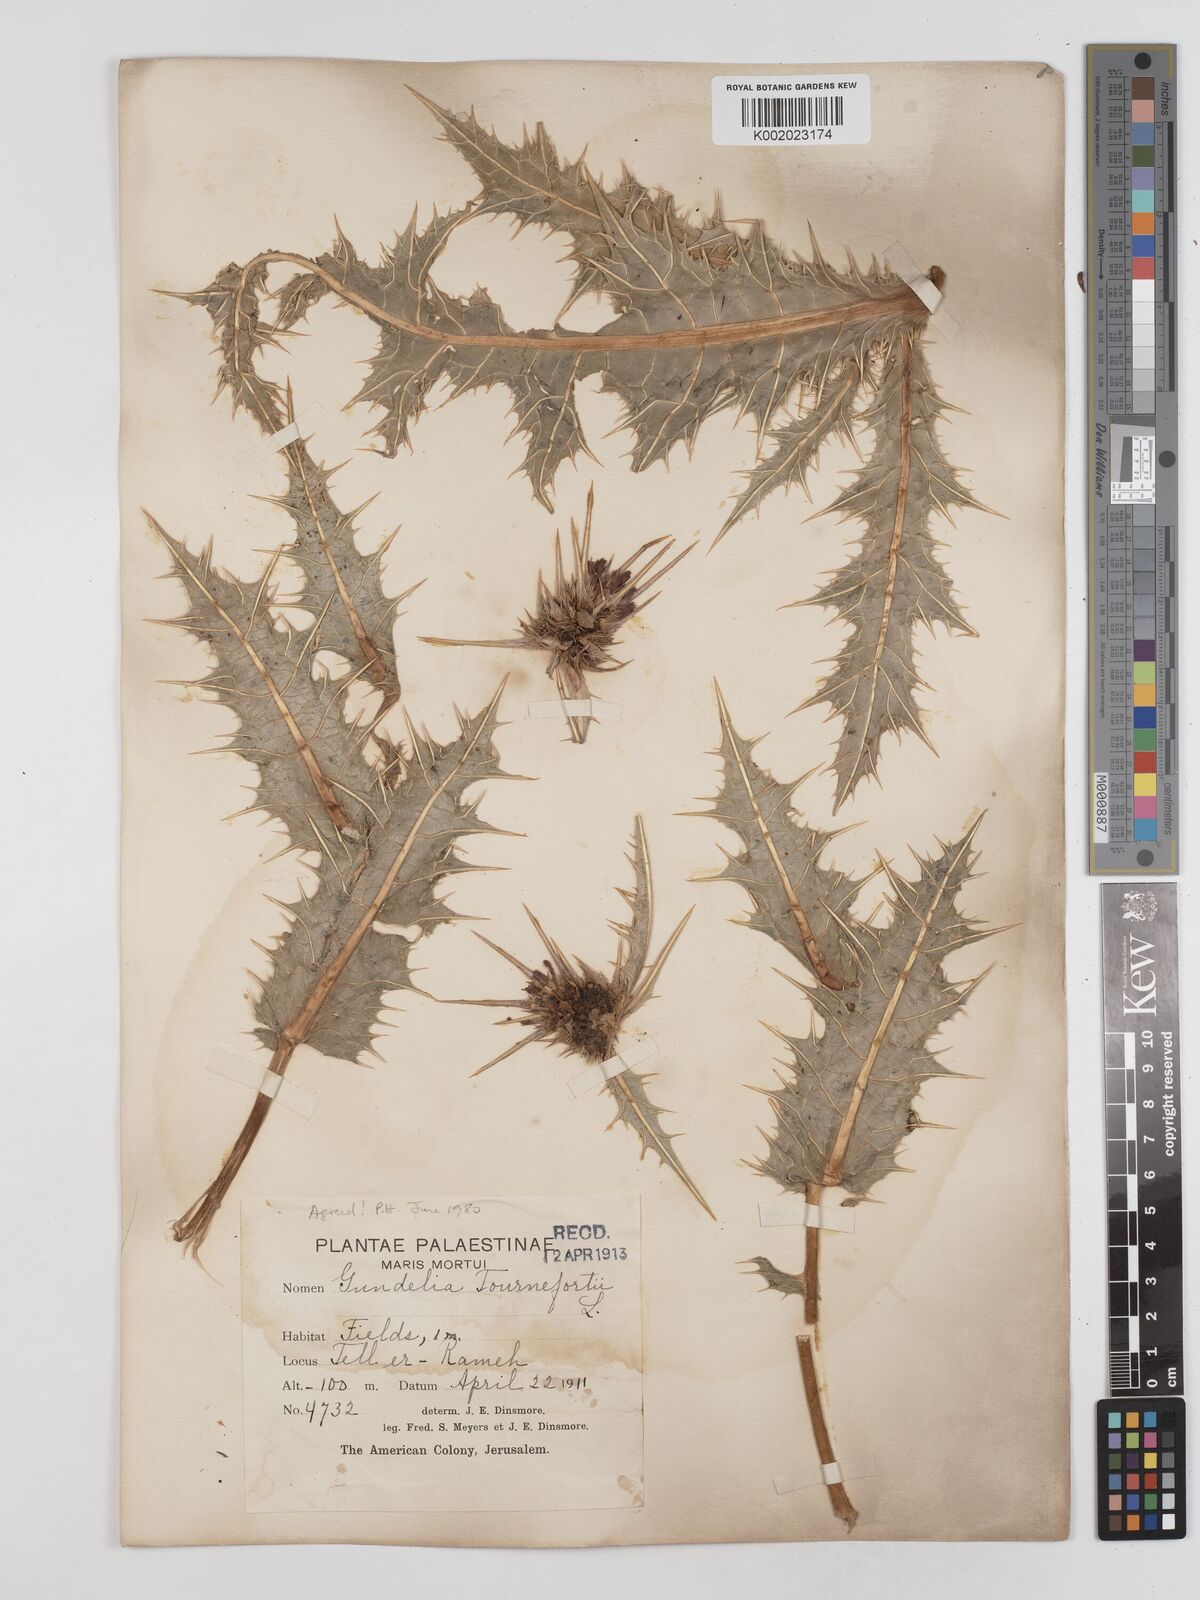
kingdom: Plantae
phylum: Tracheophyta
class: Magnoliopsida
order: Asterales
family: Asteraceae
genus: Gundelia
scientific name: Gundelia tournefortii
